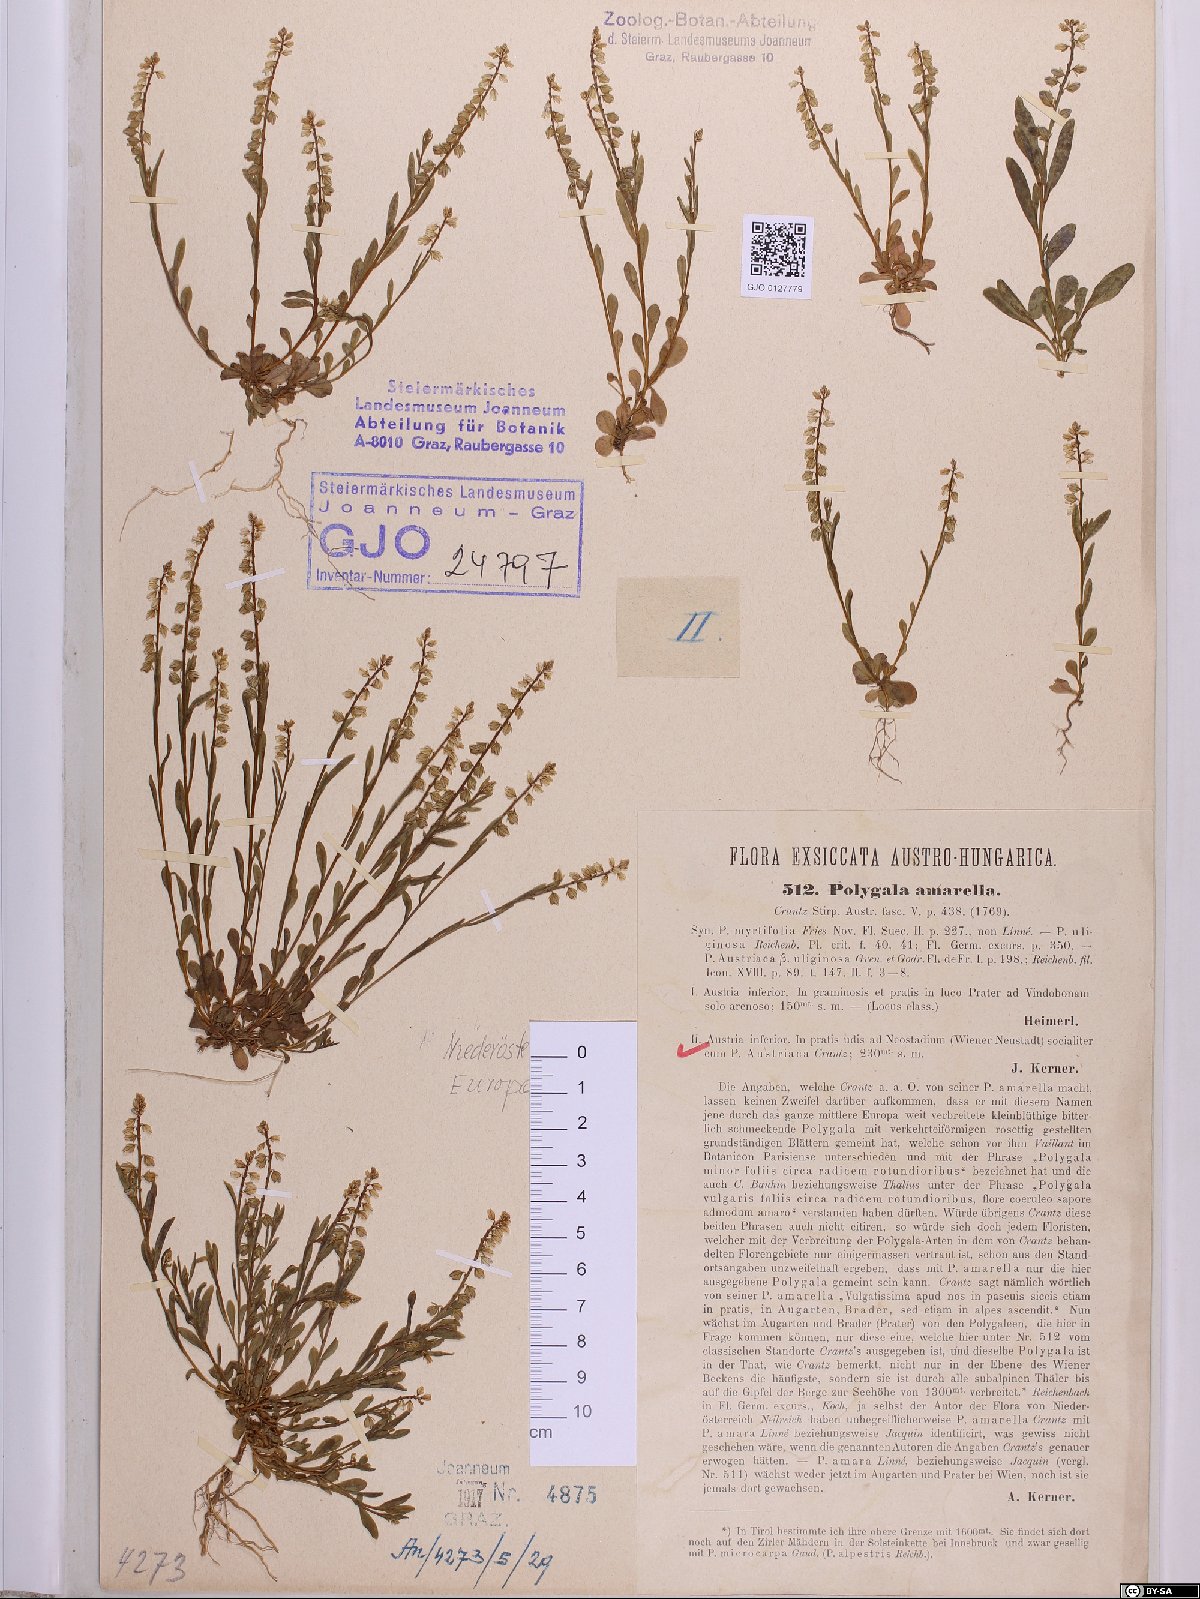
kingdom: Plantae
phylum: Tracheophyta
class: Magnoliopsida
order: Fabales
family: Polygalaceae
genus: Polygala
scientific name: Polygala amarella
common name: Dwarf milkwort
